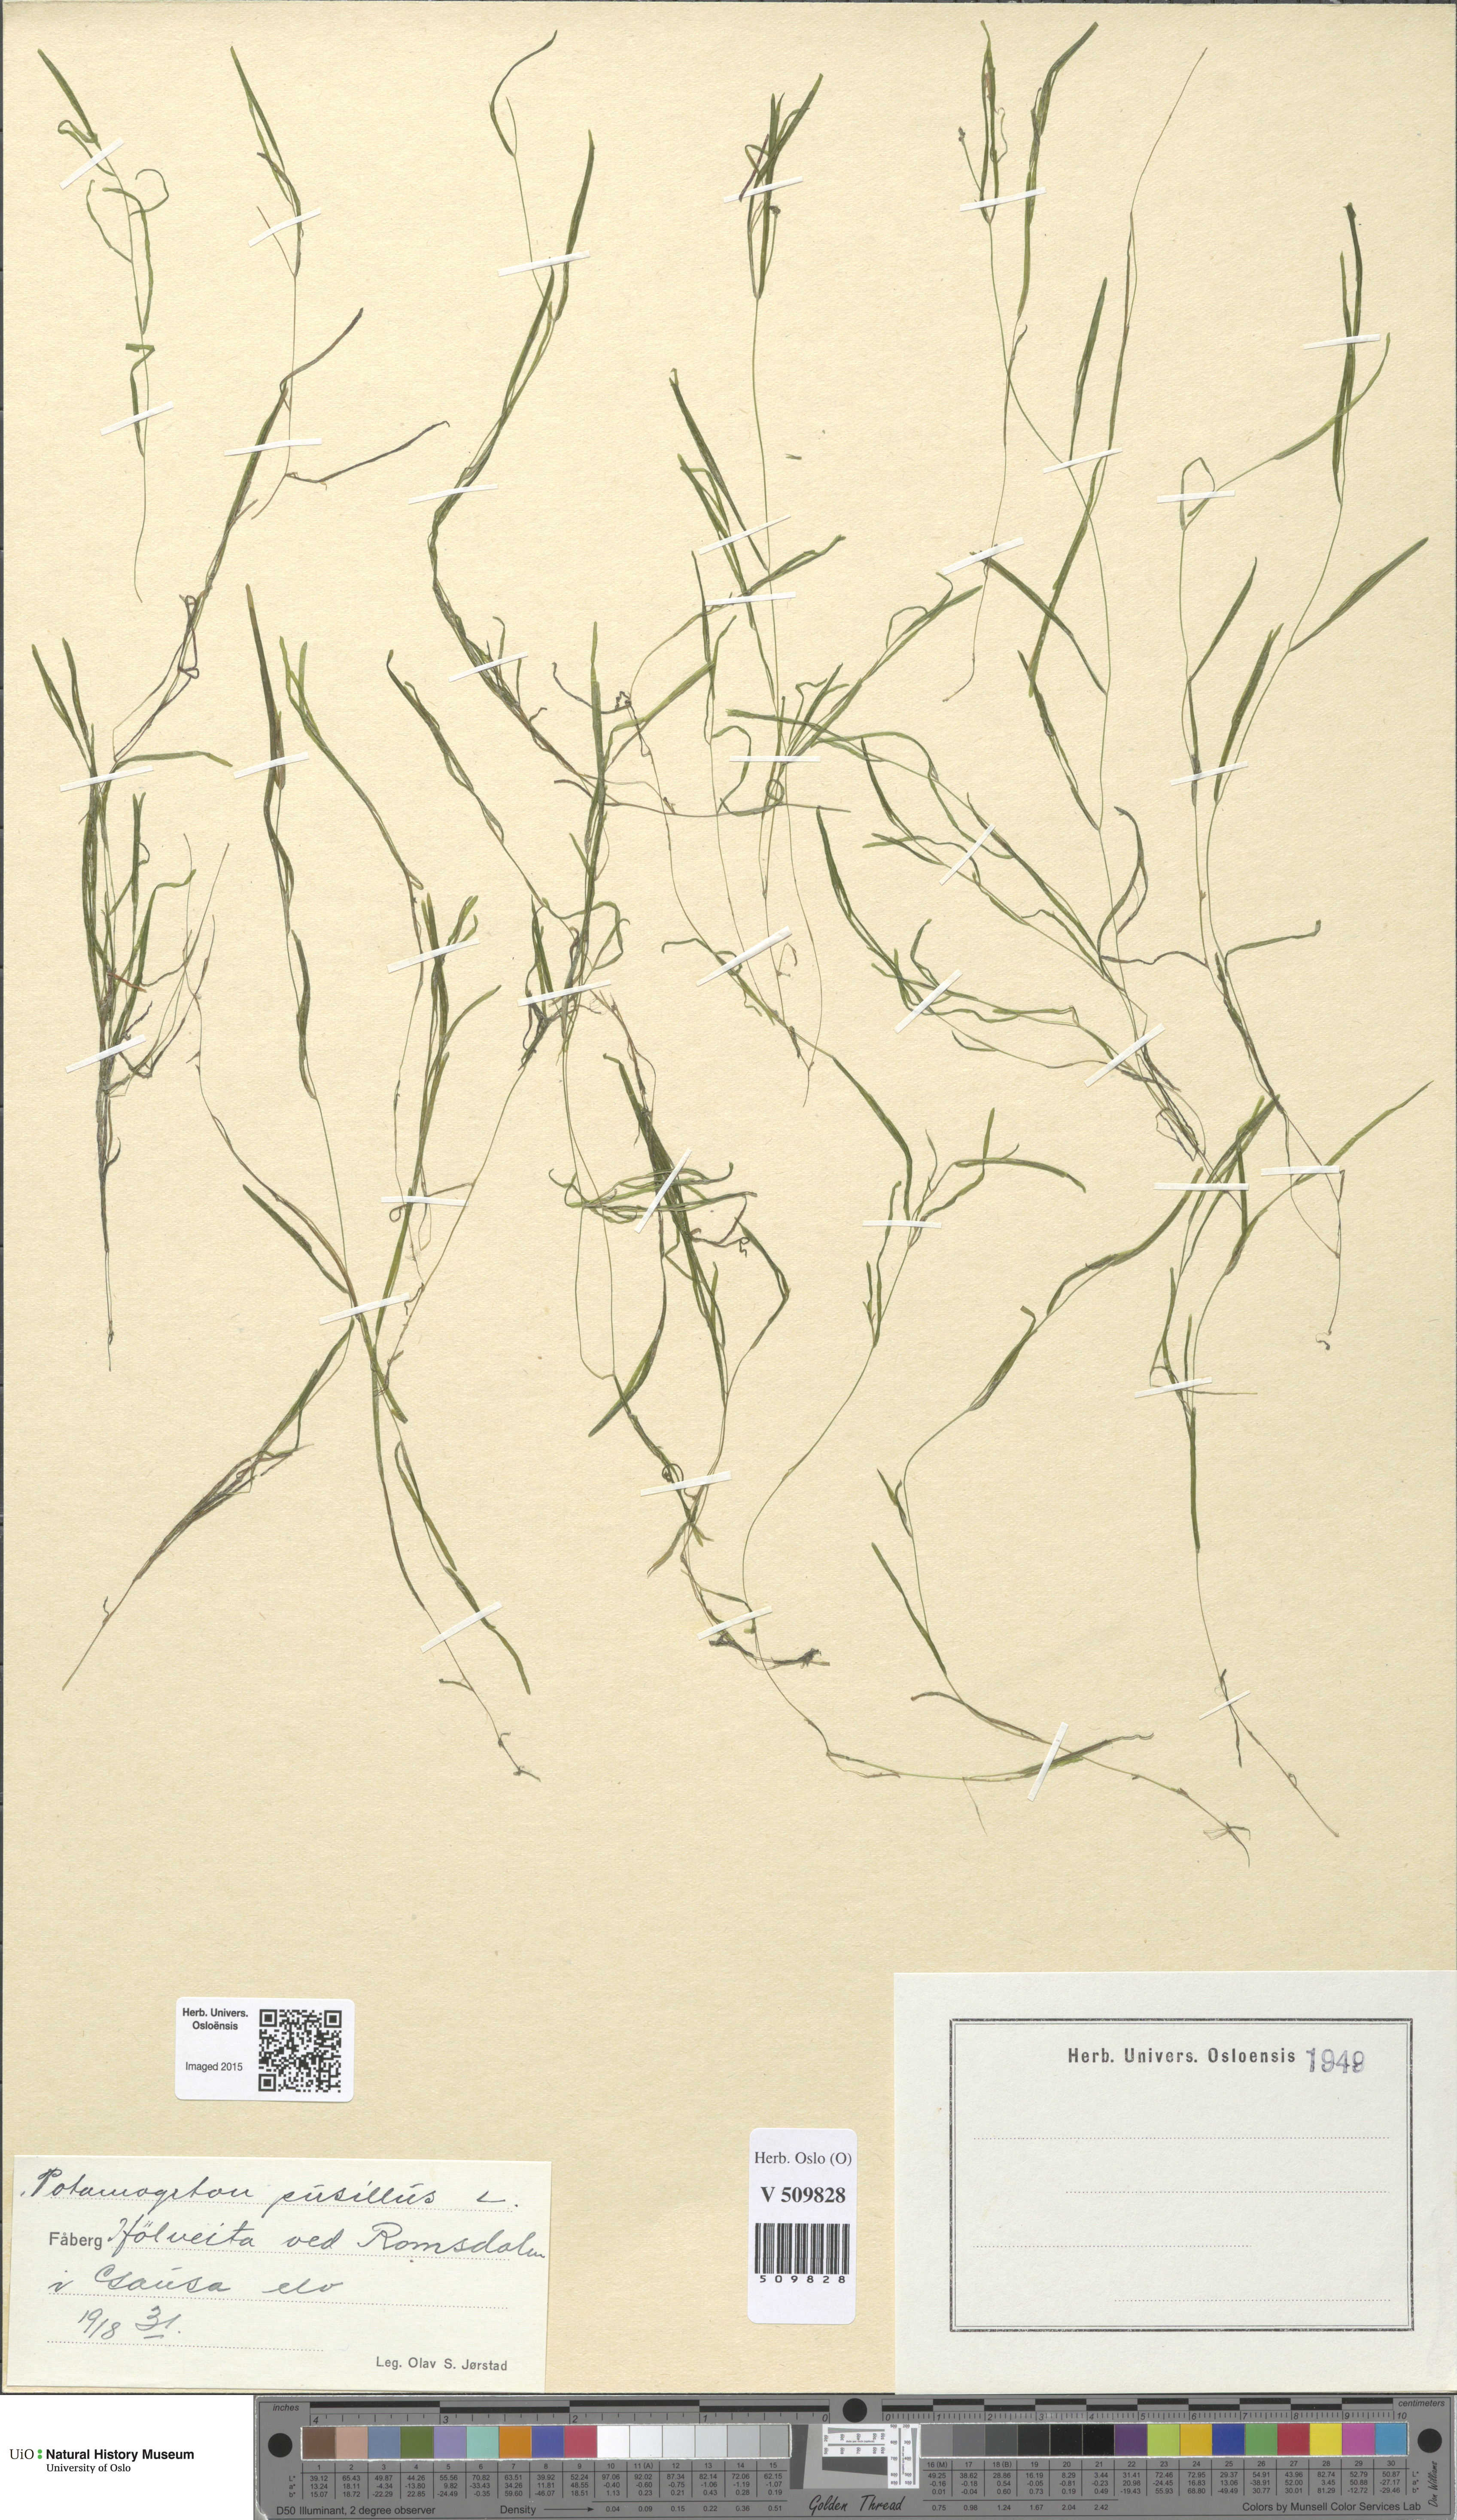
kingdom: Plantae
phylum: Tracheophyta
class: Liliopsida
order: Alismatales
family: Potamogetonaceae
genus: Potamogeton
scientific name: Potamogeton berchtoldii
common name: Small pondweed
